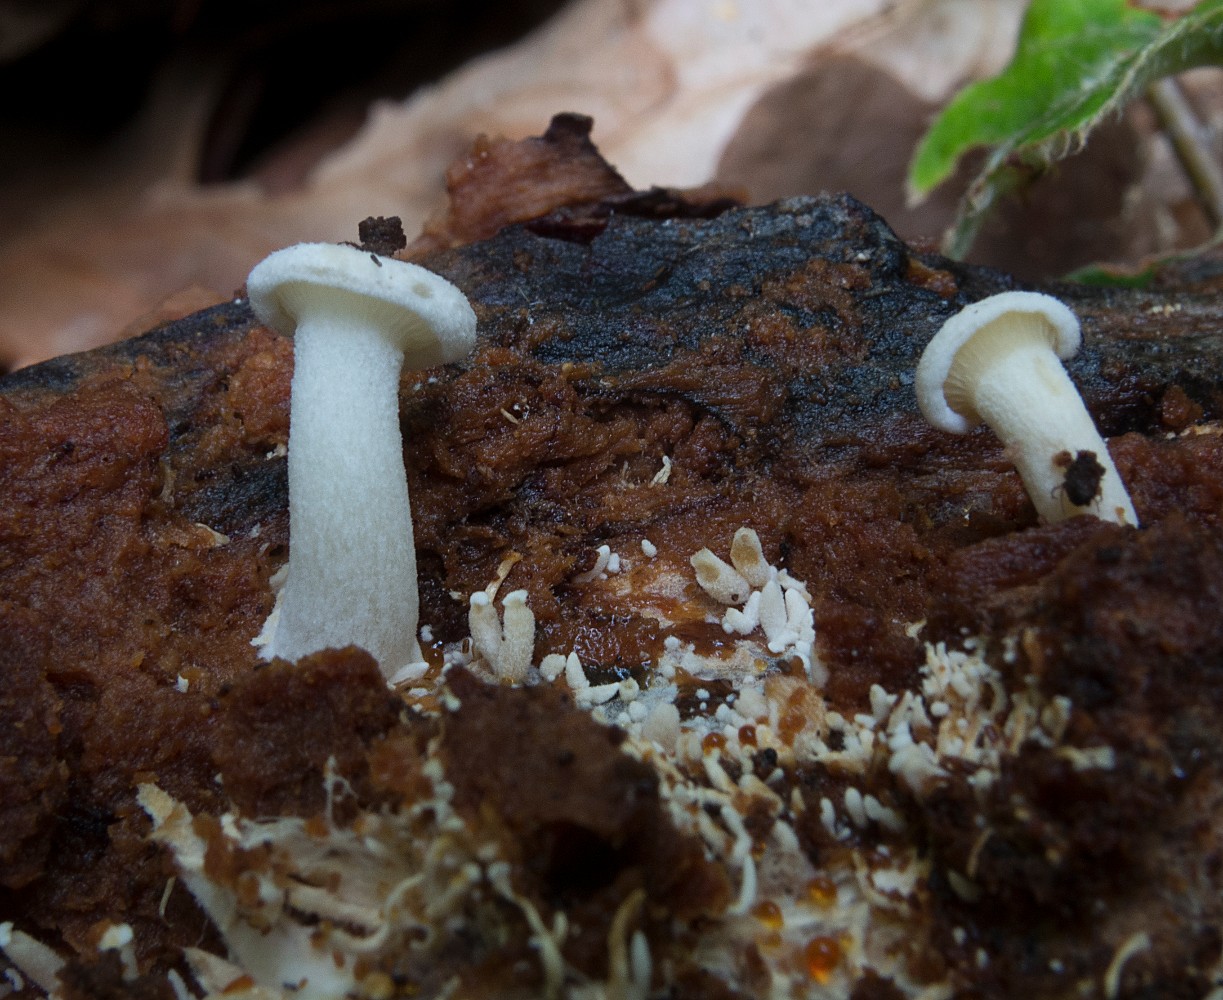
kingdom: Fungi
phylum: Basidiomycota
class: Agaricomycetes
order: Agaricales
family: Lyophyllaceae
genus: Ossicaulis
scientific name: Ossicaulis lignatilis
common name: hvidlig vedtragthat
